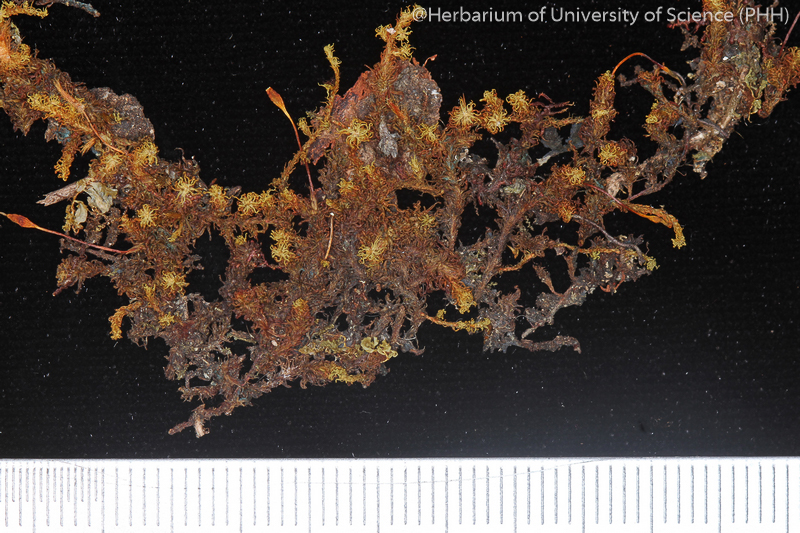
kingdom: Plantae
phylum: Bryophyta
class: Bryopsida
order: Orthotrichales
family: Orthotrichaceae
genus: Macromitrium
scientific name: Macromitrium japonicum
